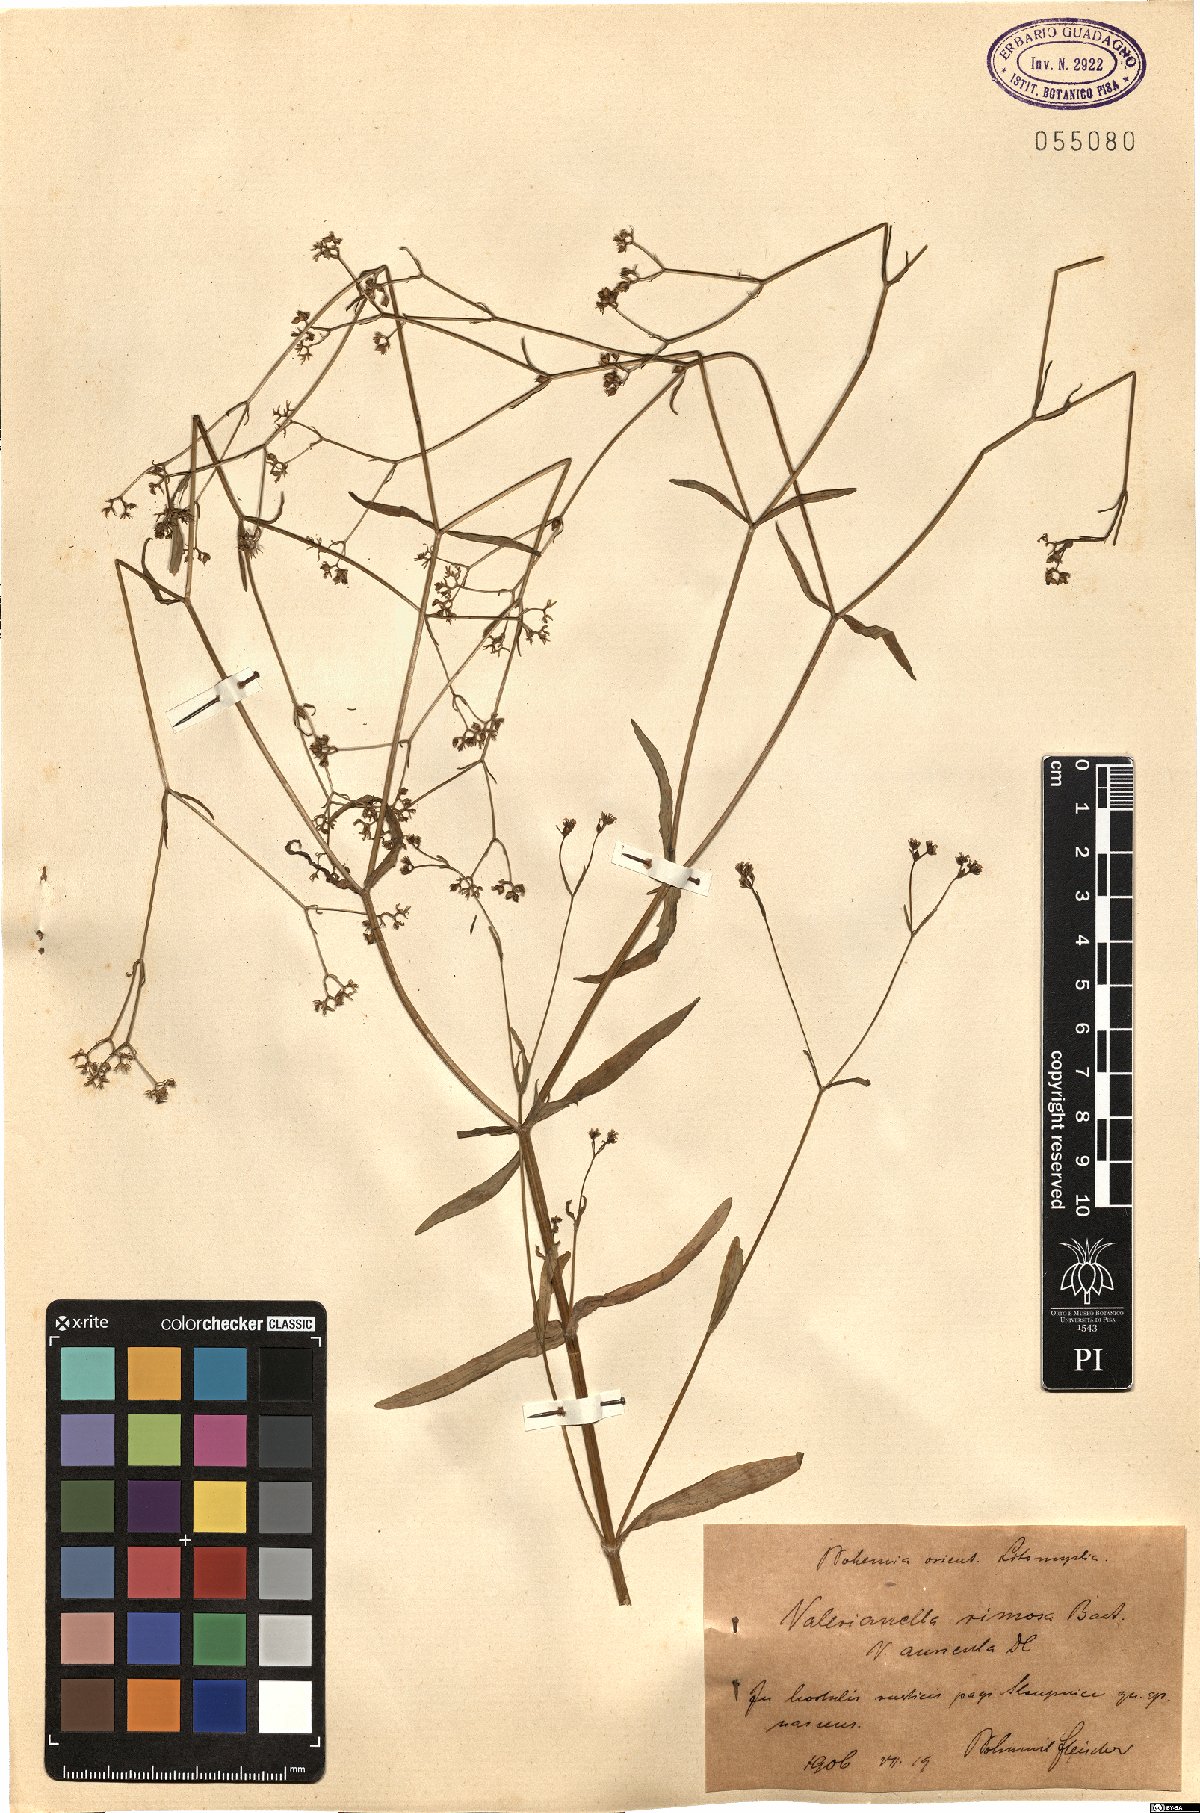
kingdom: Plantae
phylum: Tracheophyta
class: Magnoliopsida
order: Dipsacales
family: Caprifoliaceae
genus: Valerianella
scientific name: Valerianella rimosa
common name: Broad-fruited cornsalad
